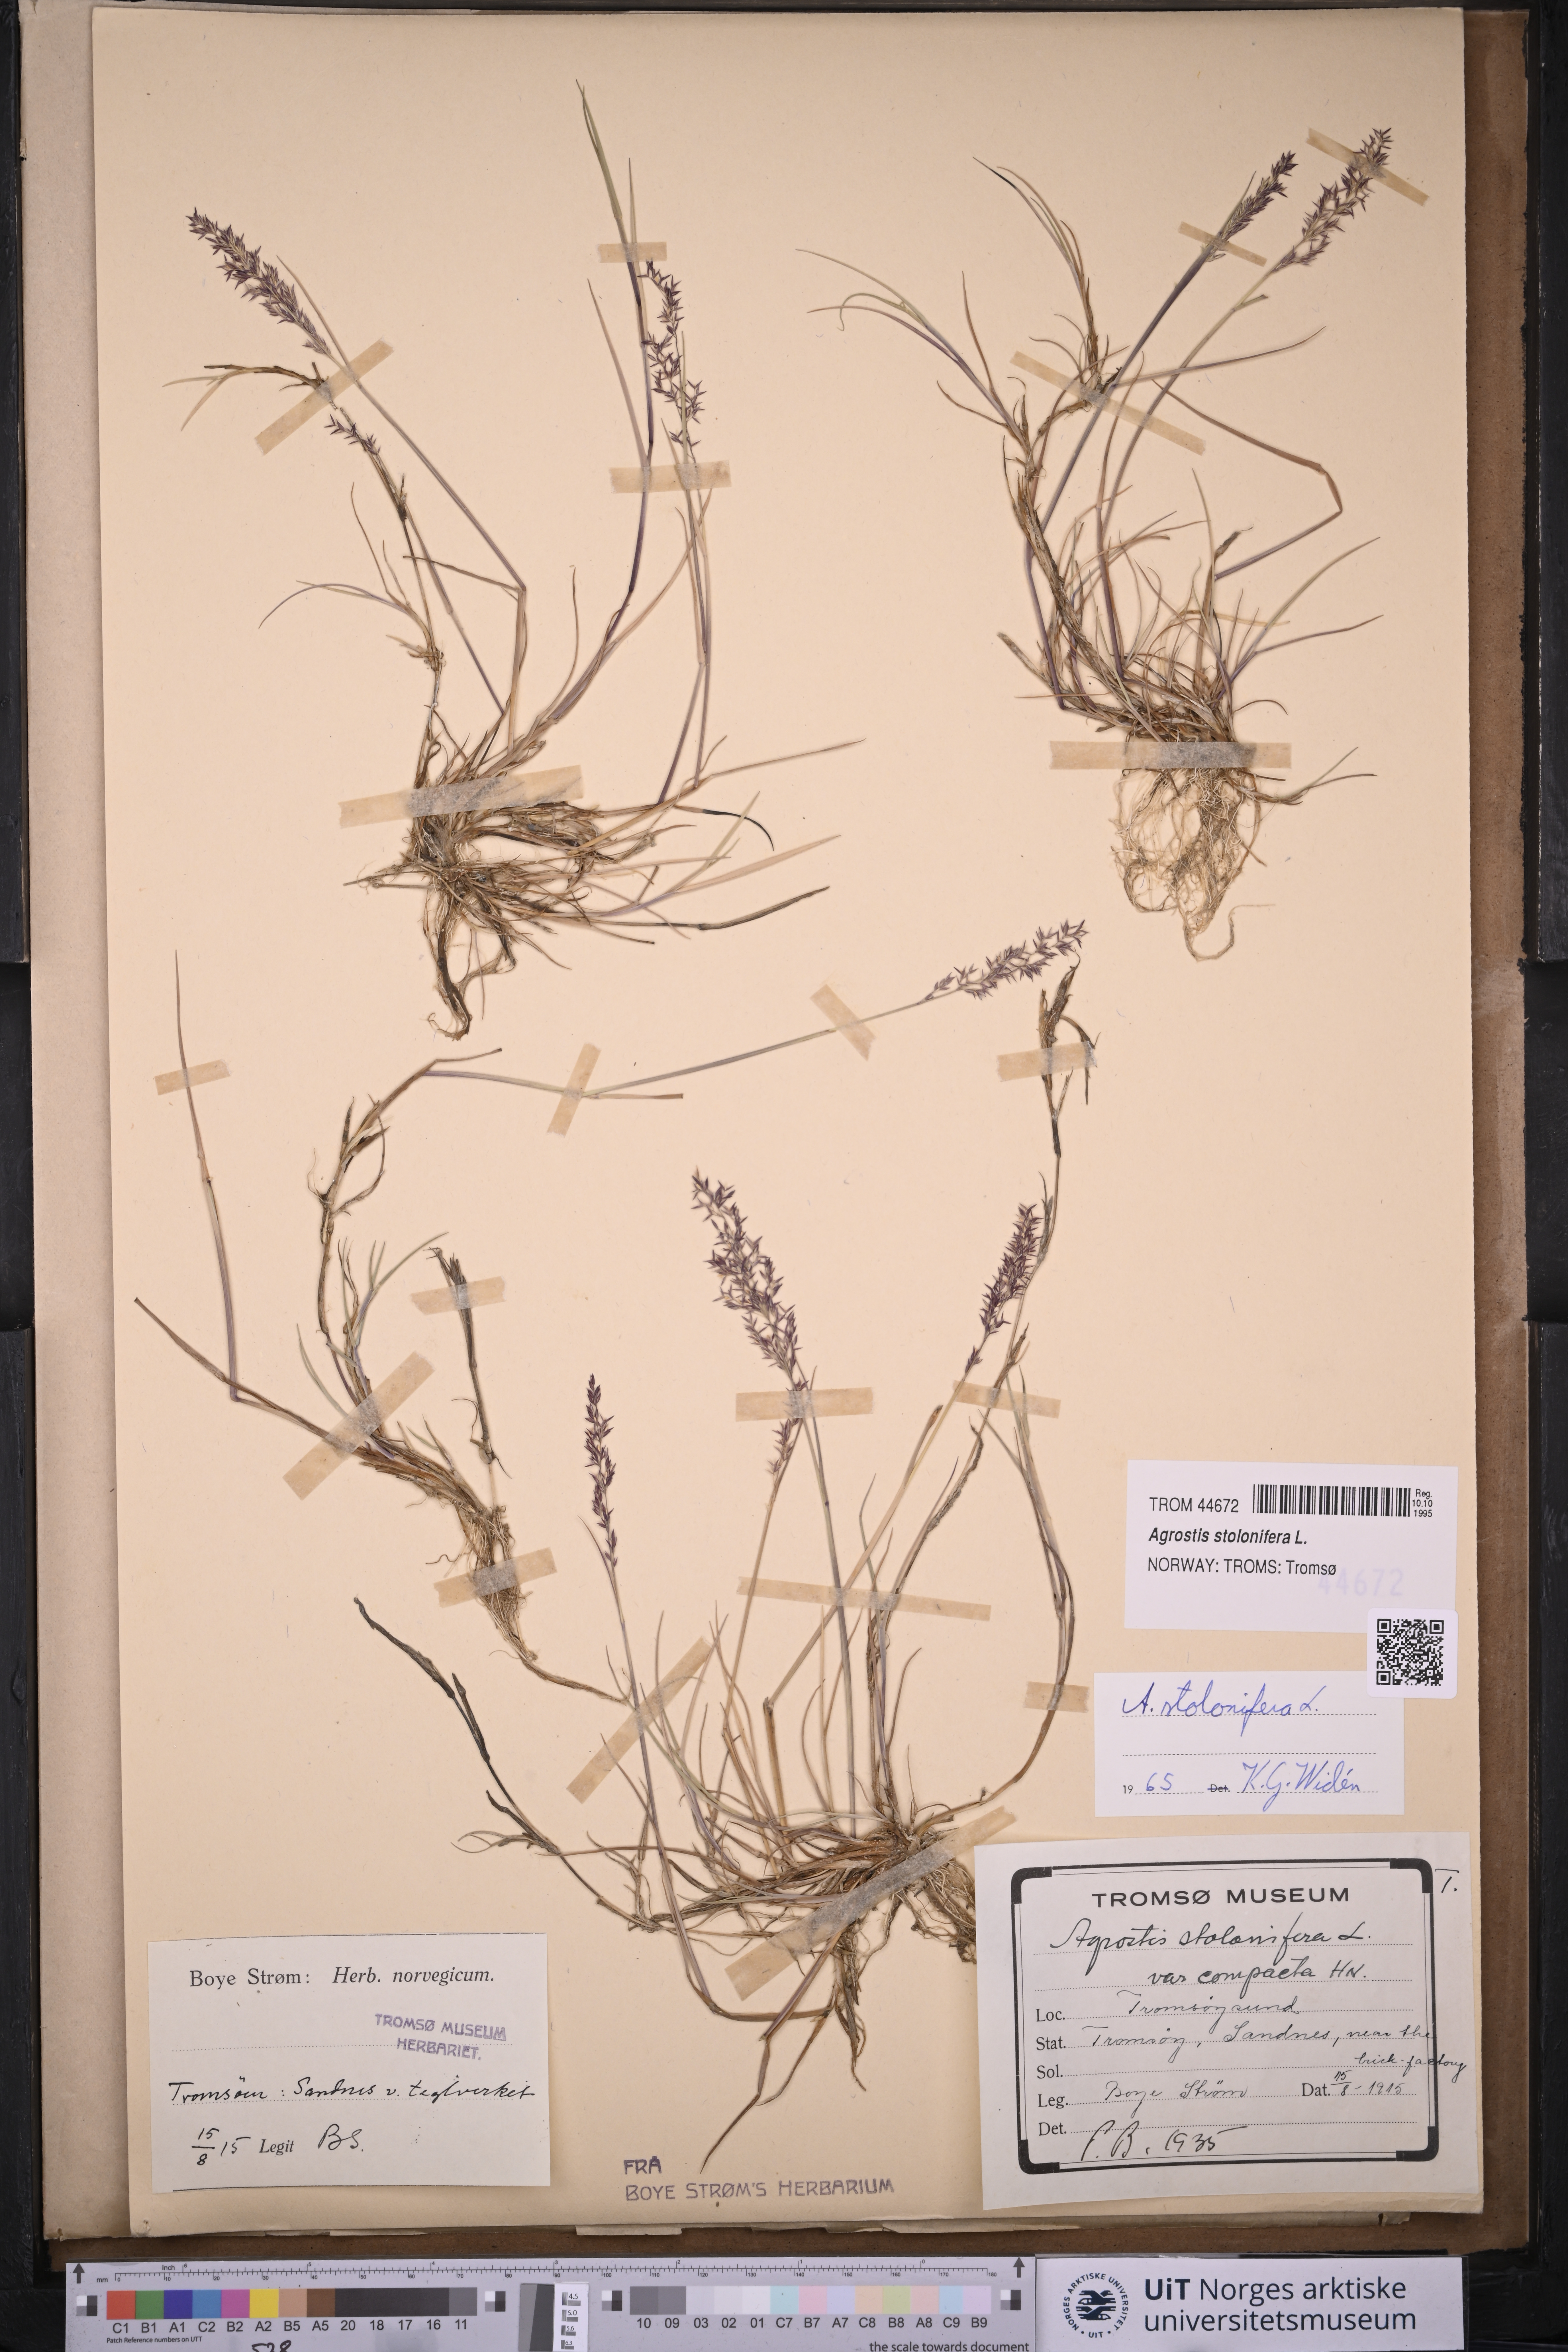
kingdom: Plantae
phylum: Tracheophyta
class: Liliopsida
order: Poales
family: Poaceae
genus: Agrostis
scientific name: Agrostis stolonifera
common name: Creeping bentgrass
